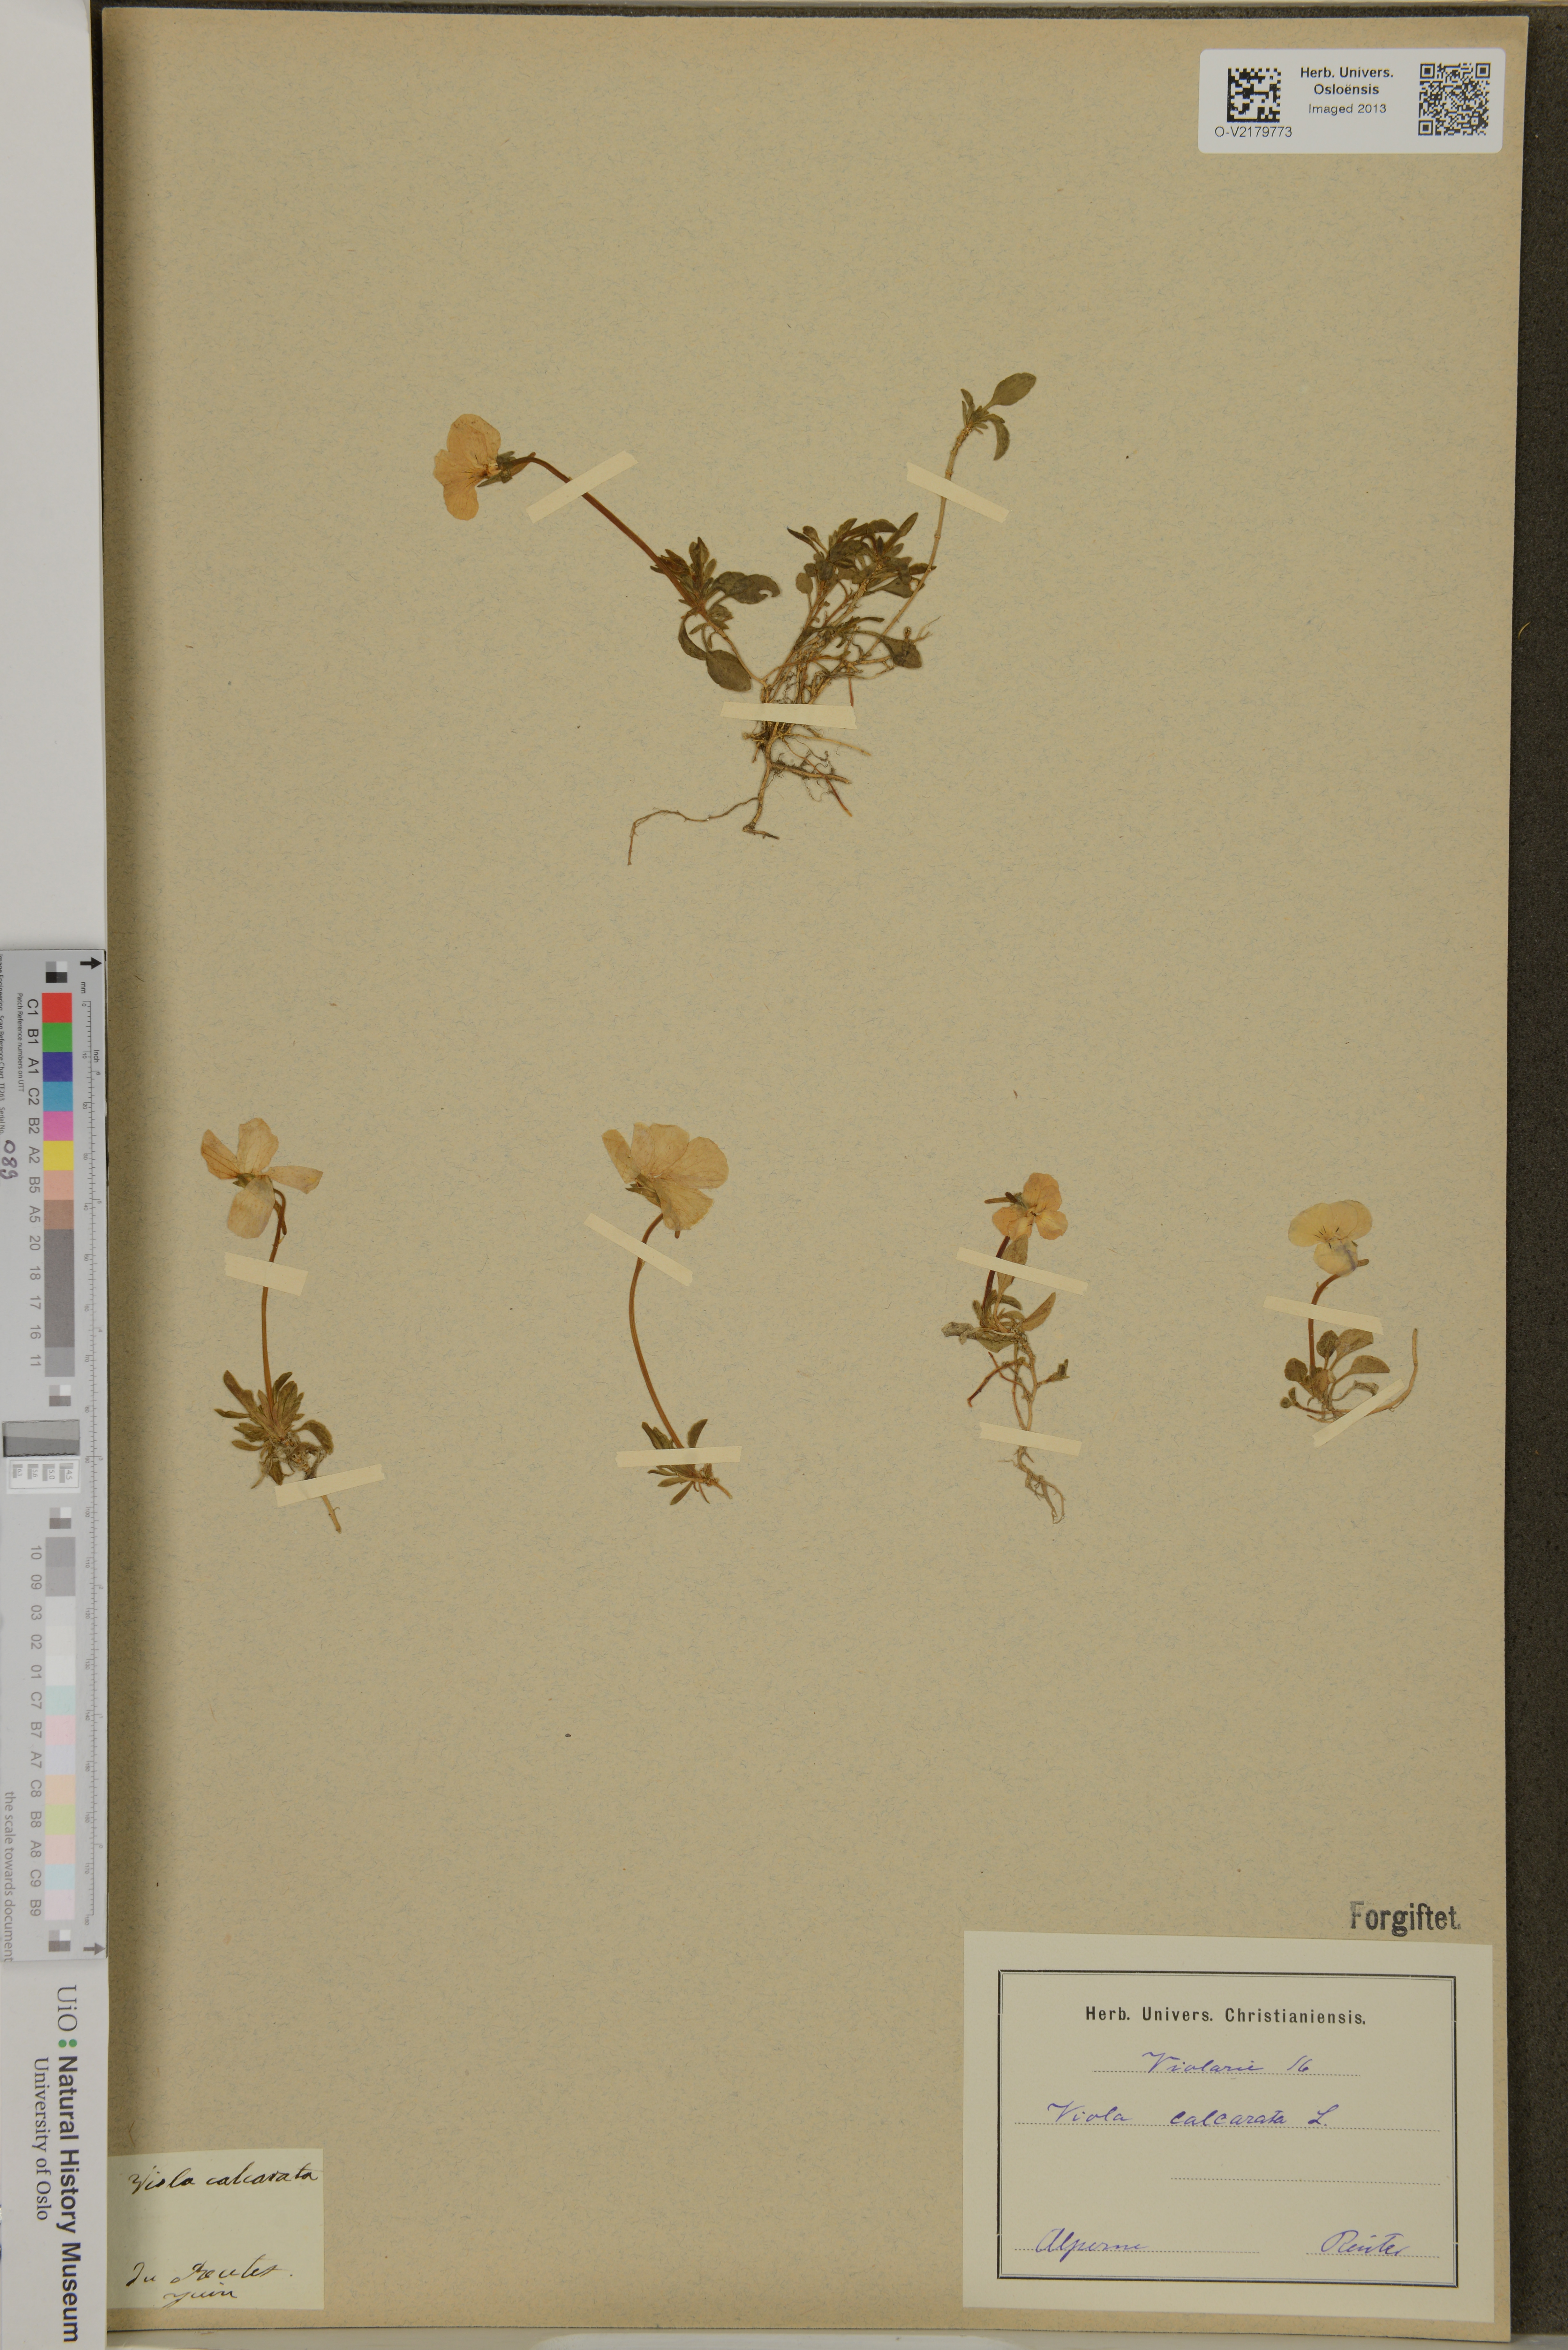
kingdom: Plantae
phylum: Tracheophyta
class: Magnoliopsida
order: Malpighiales
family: Violaceae
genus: Viola
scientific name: Viola calcarata
